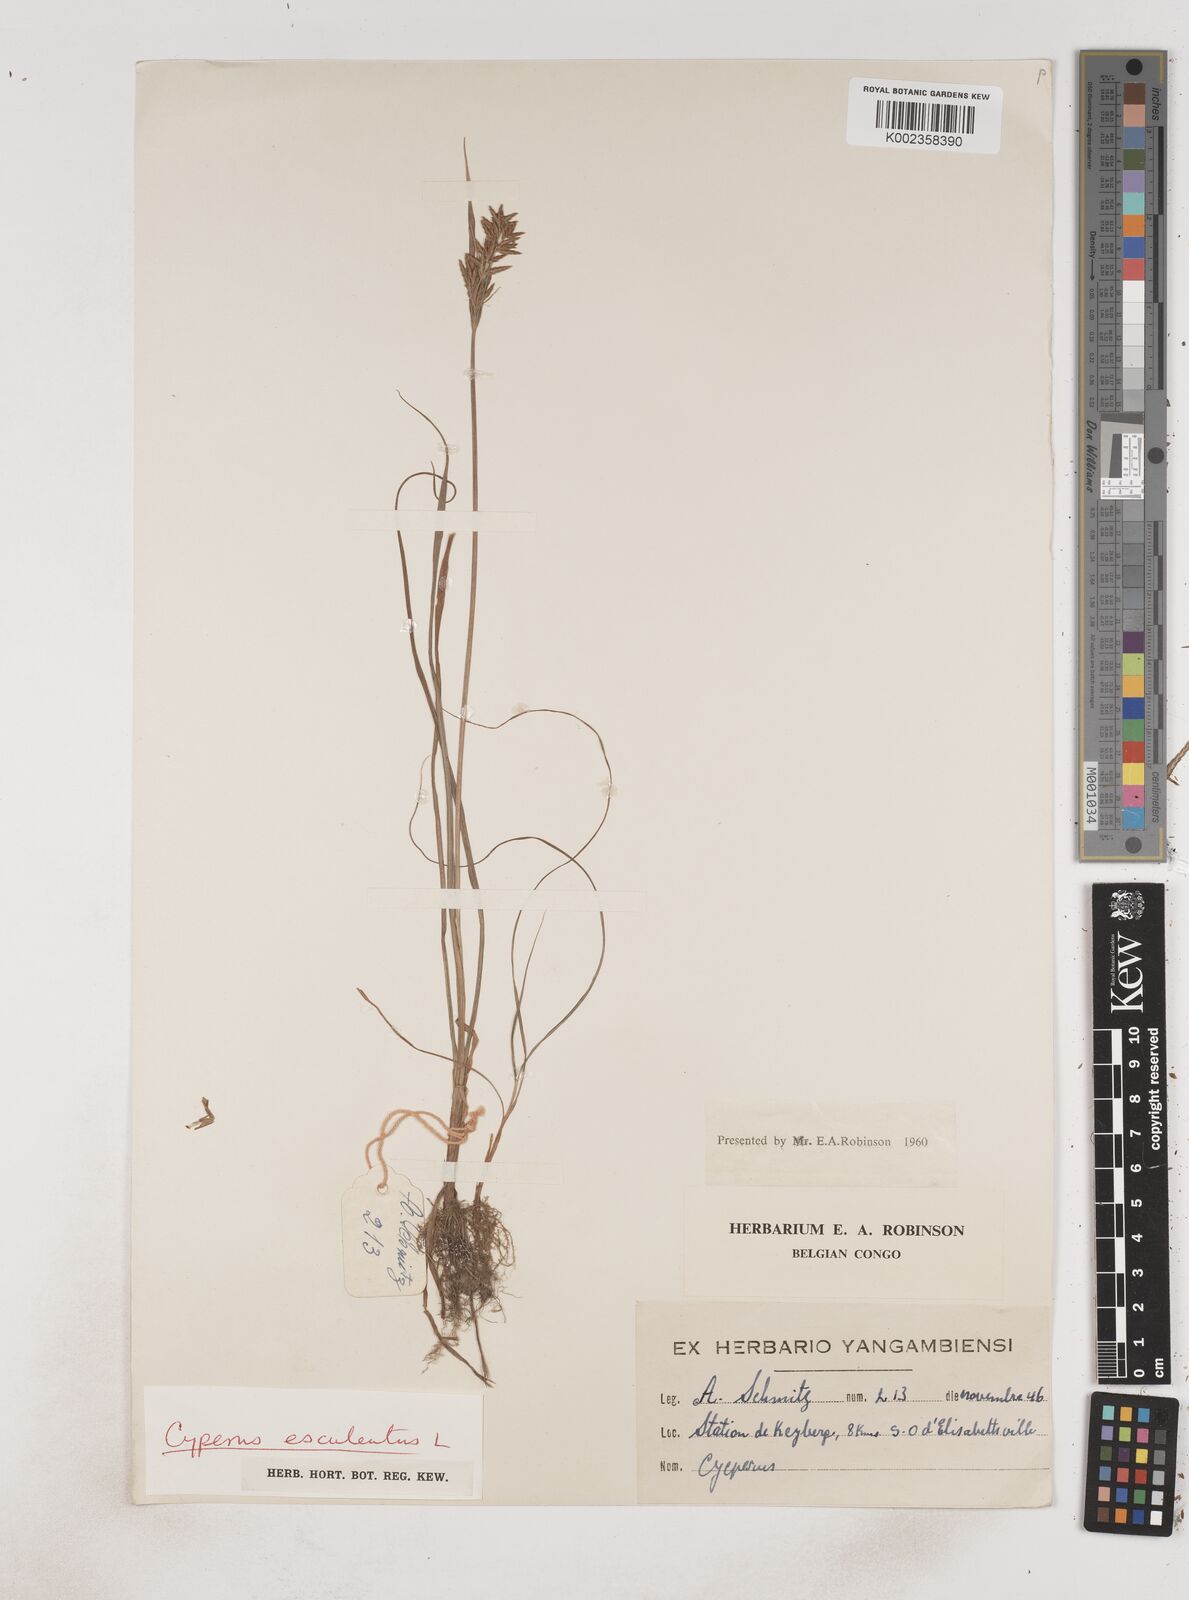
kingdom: Plantae
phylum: Tracheophyta
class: Liliopsida
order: Poales
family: Cyperaceae
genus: Cyperus
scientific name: Cyperus esculentus
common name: Yellow nutsedge
